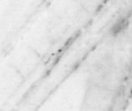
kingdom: Animalia
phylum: Chordata
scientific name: Chordata
